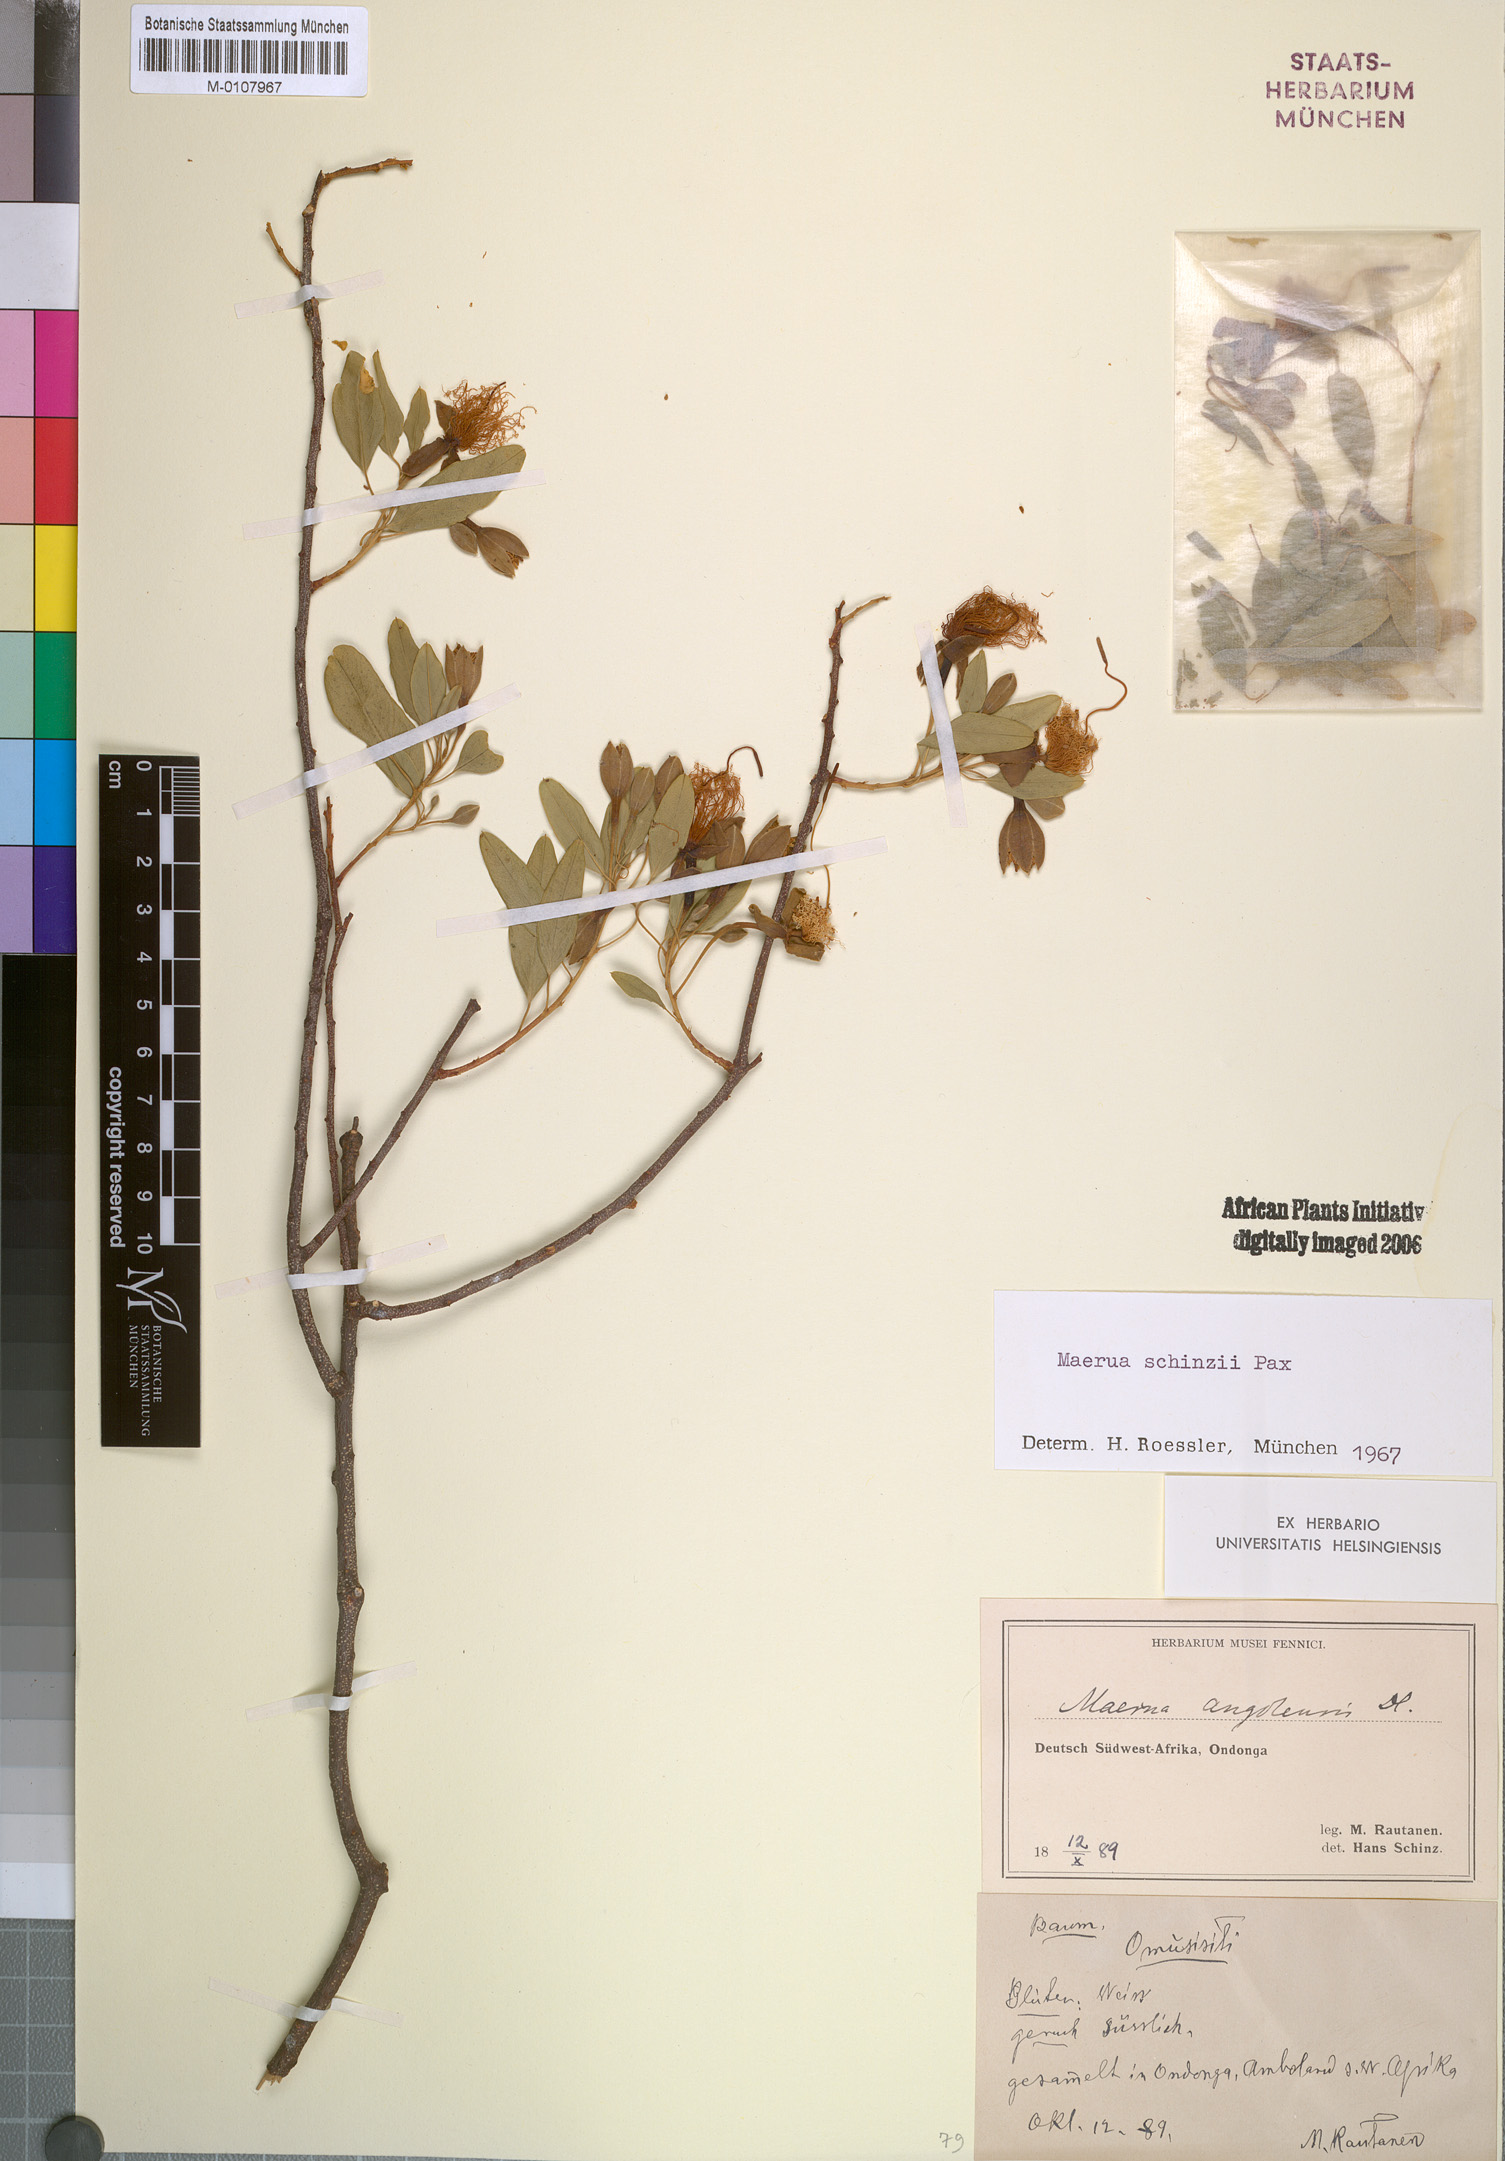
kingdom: Plantae
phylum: Tracheophyta
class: Magnoliopsida
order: Brassicales
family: Capparaceae
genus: Maerua
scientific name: Maerua schinzii
